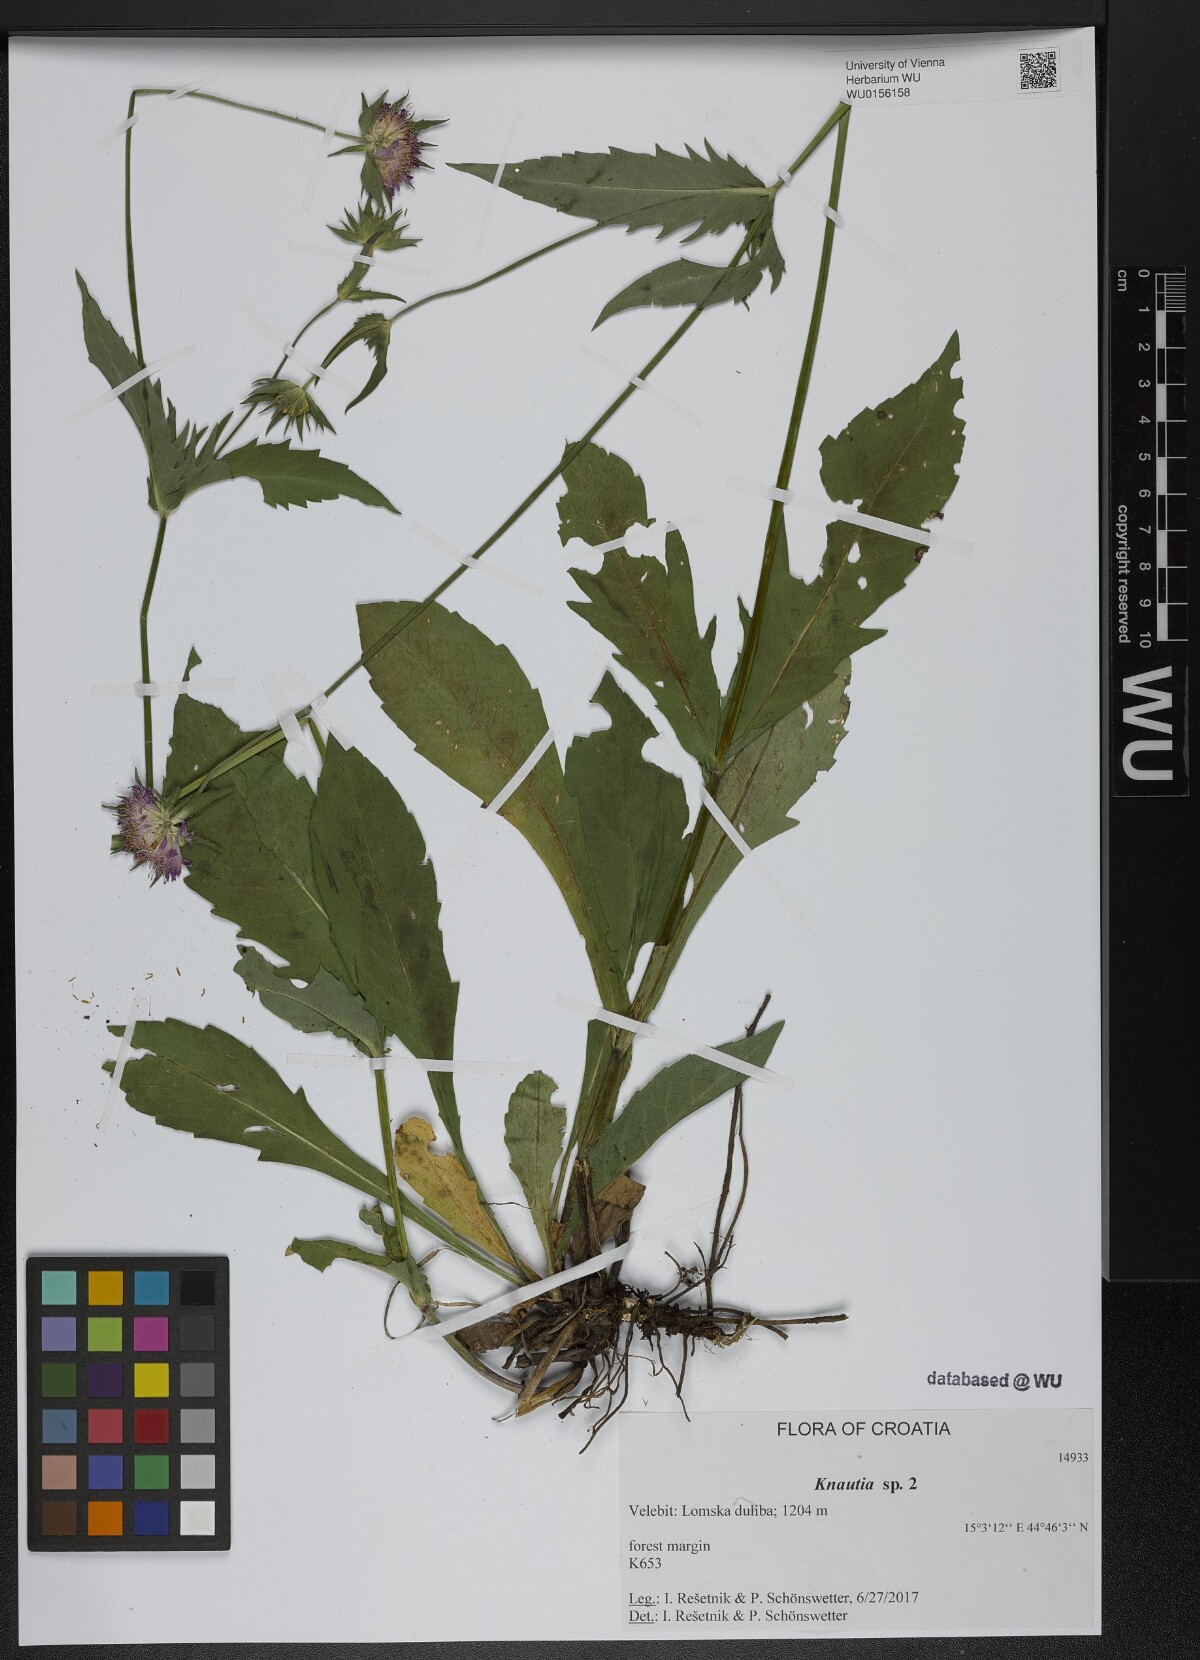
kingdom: Plantae
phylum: Tracheophyta
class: Magnoliopsida
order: Dipsacales
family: Caprifoliaceae
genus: Knautia
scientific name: Knautia
